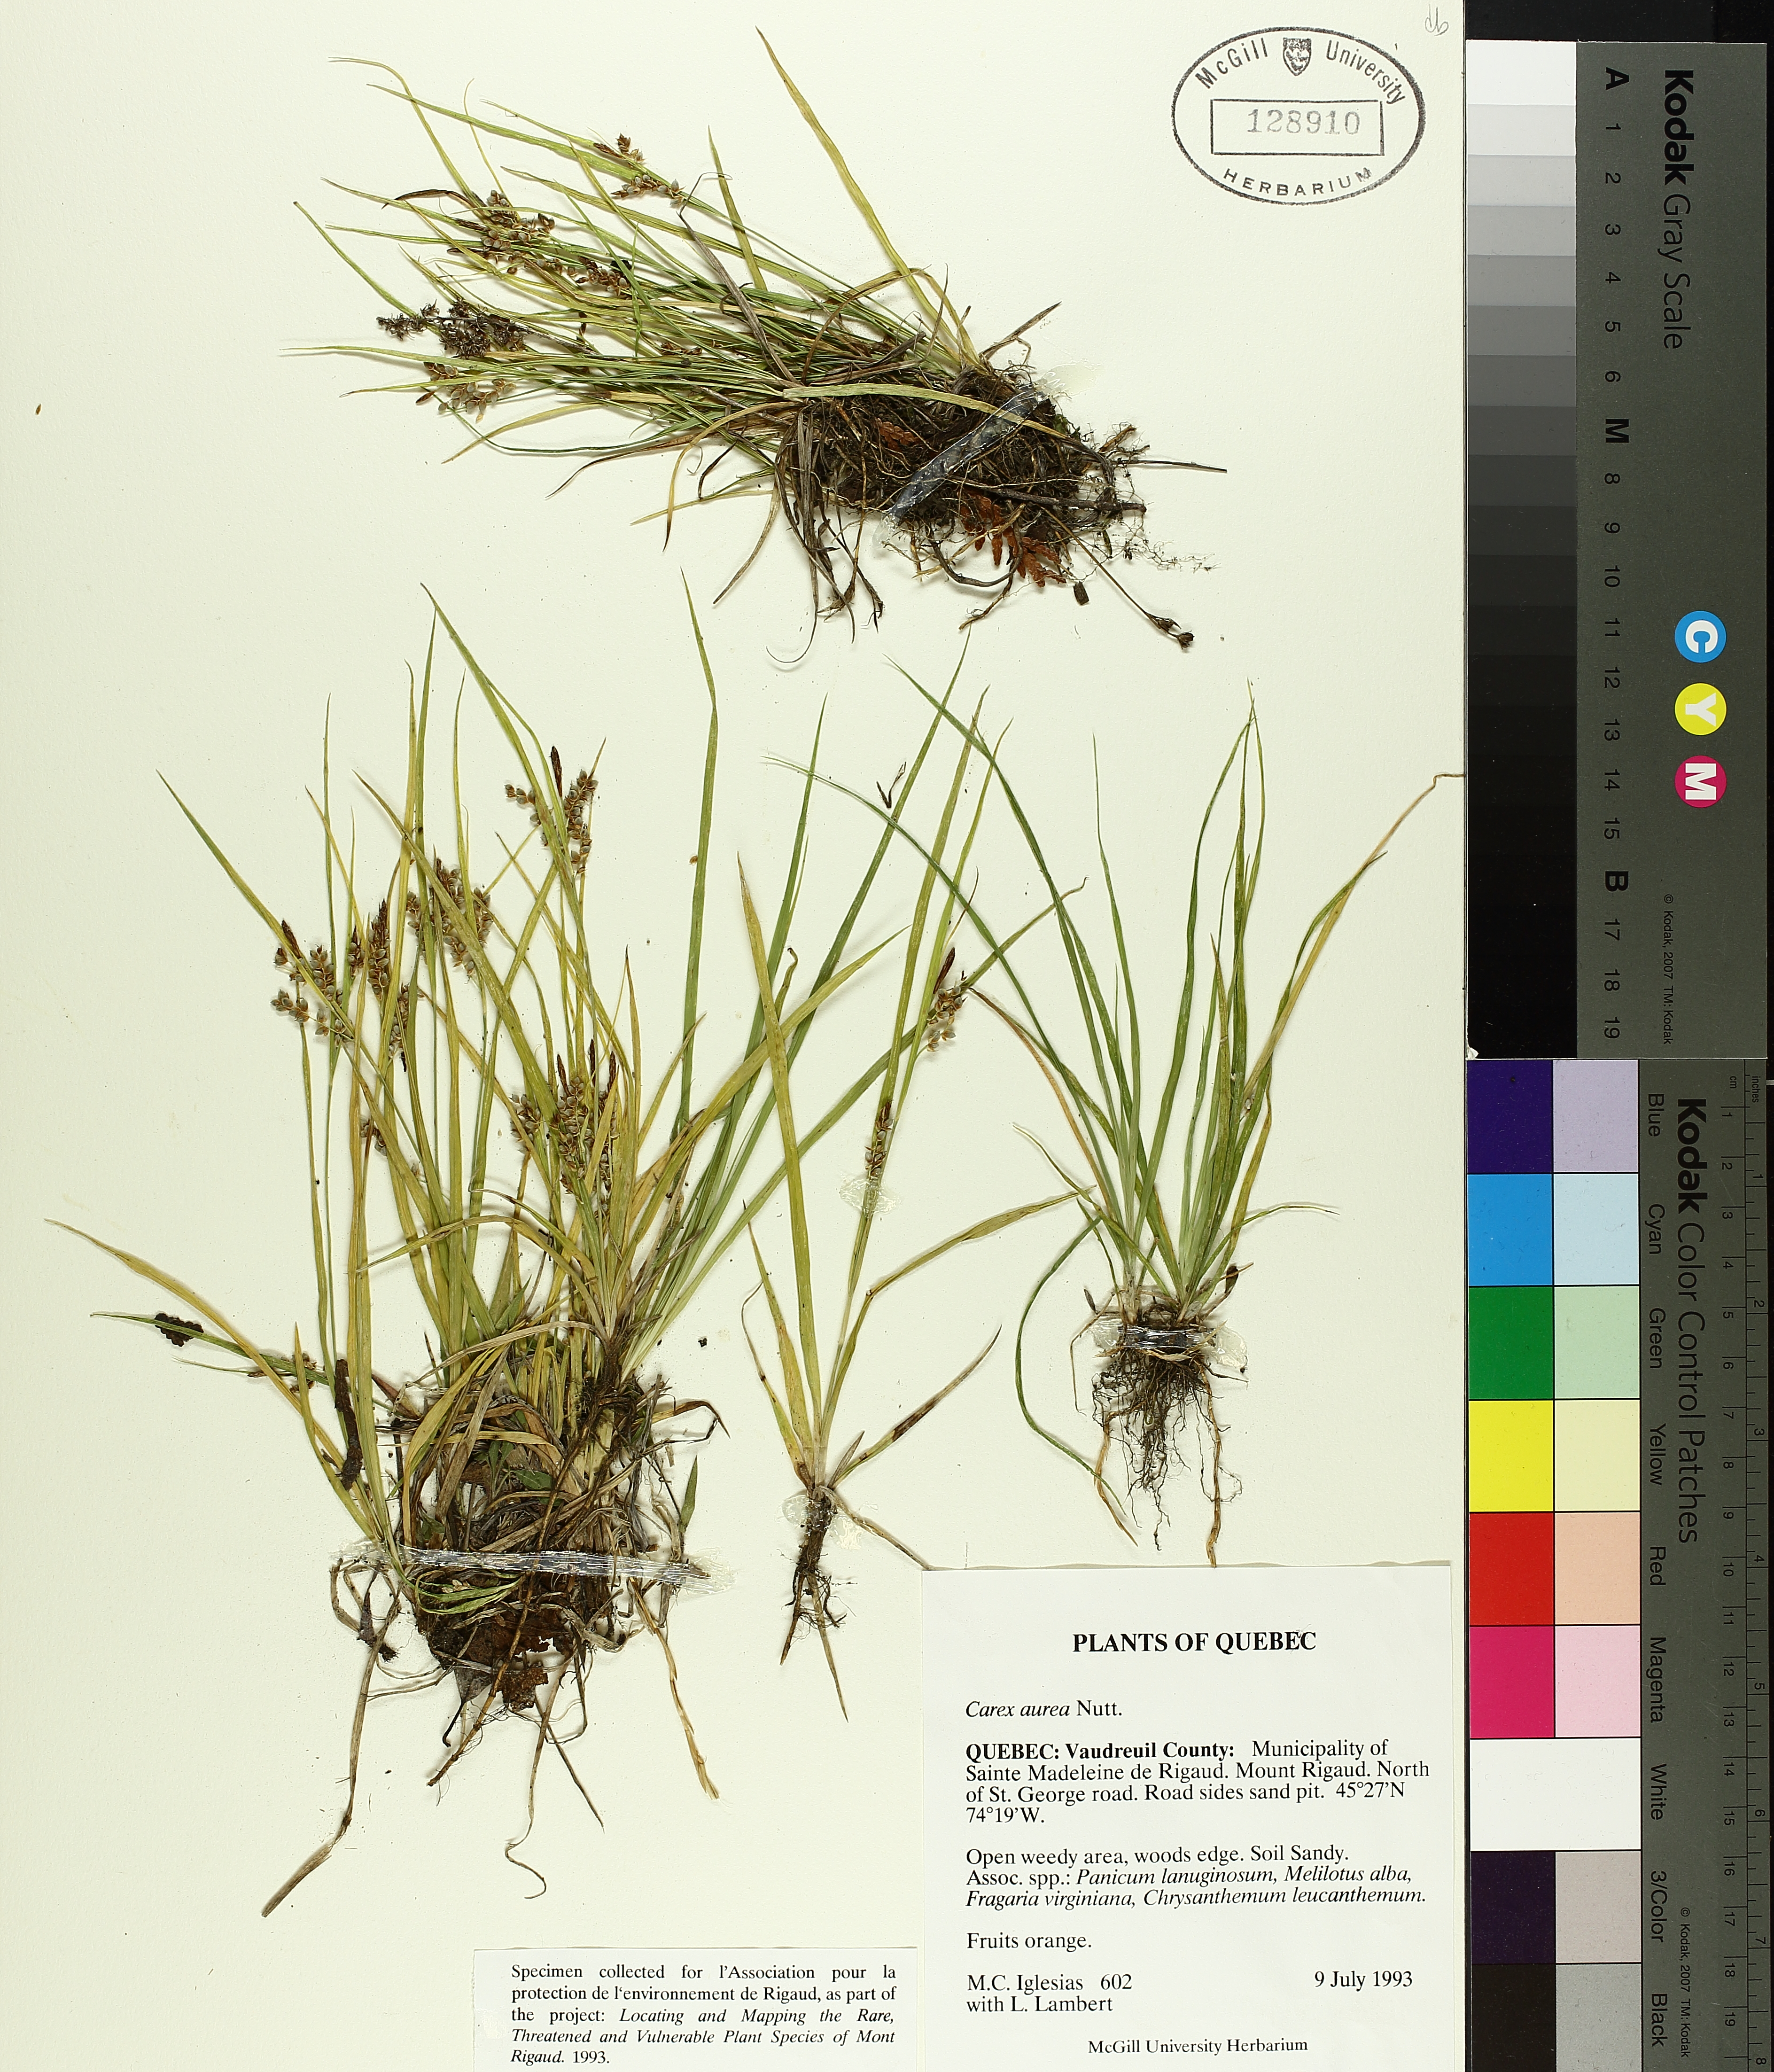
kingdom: Plantae
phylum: Tracheophyta
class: Liliopsida
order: Poales
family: Cyperaceae
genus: Carex
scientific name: Carex aurea
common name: Golden sedge
